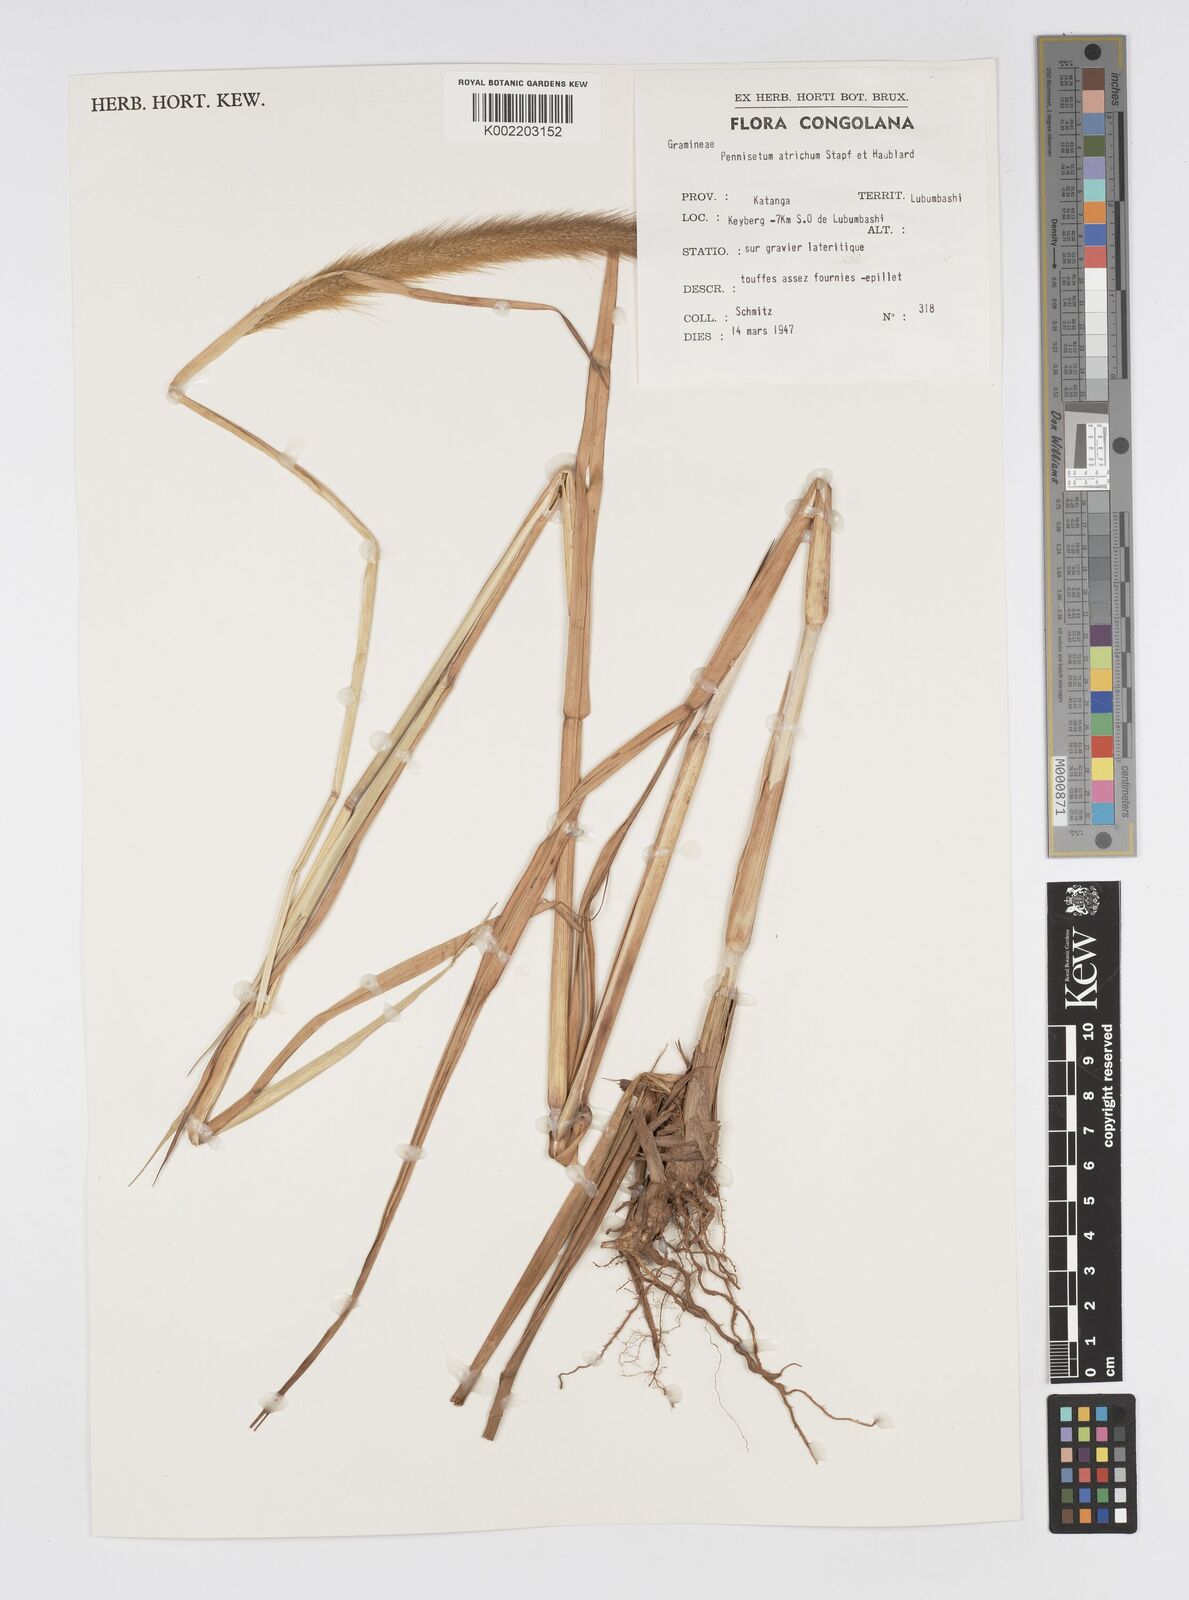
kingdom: Plantae
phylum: Tracheophyta
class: Liliopsida
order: Poales
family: Poaceae
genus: Cenchrus
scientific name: Cenchrus setosus
